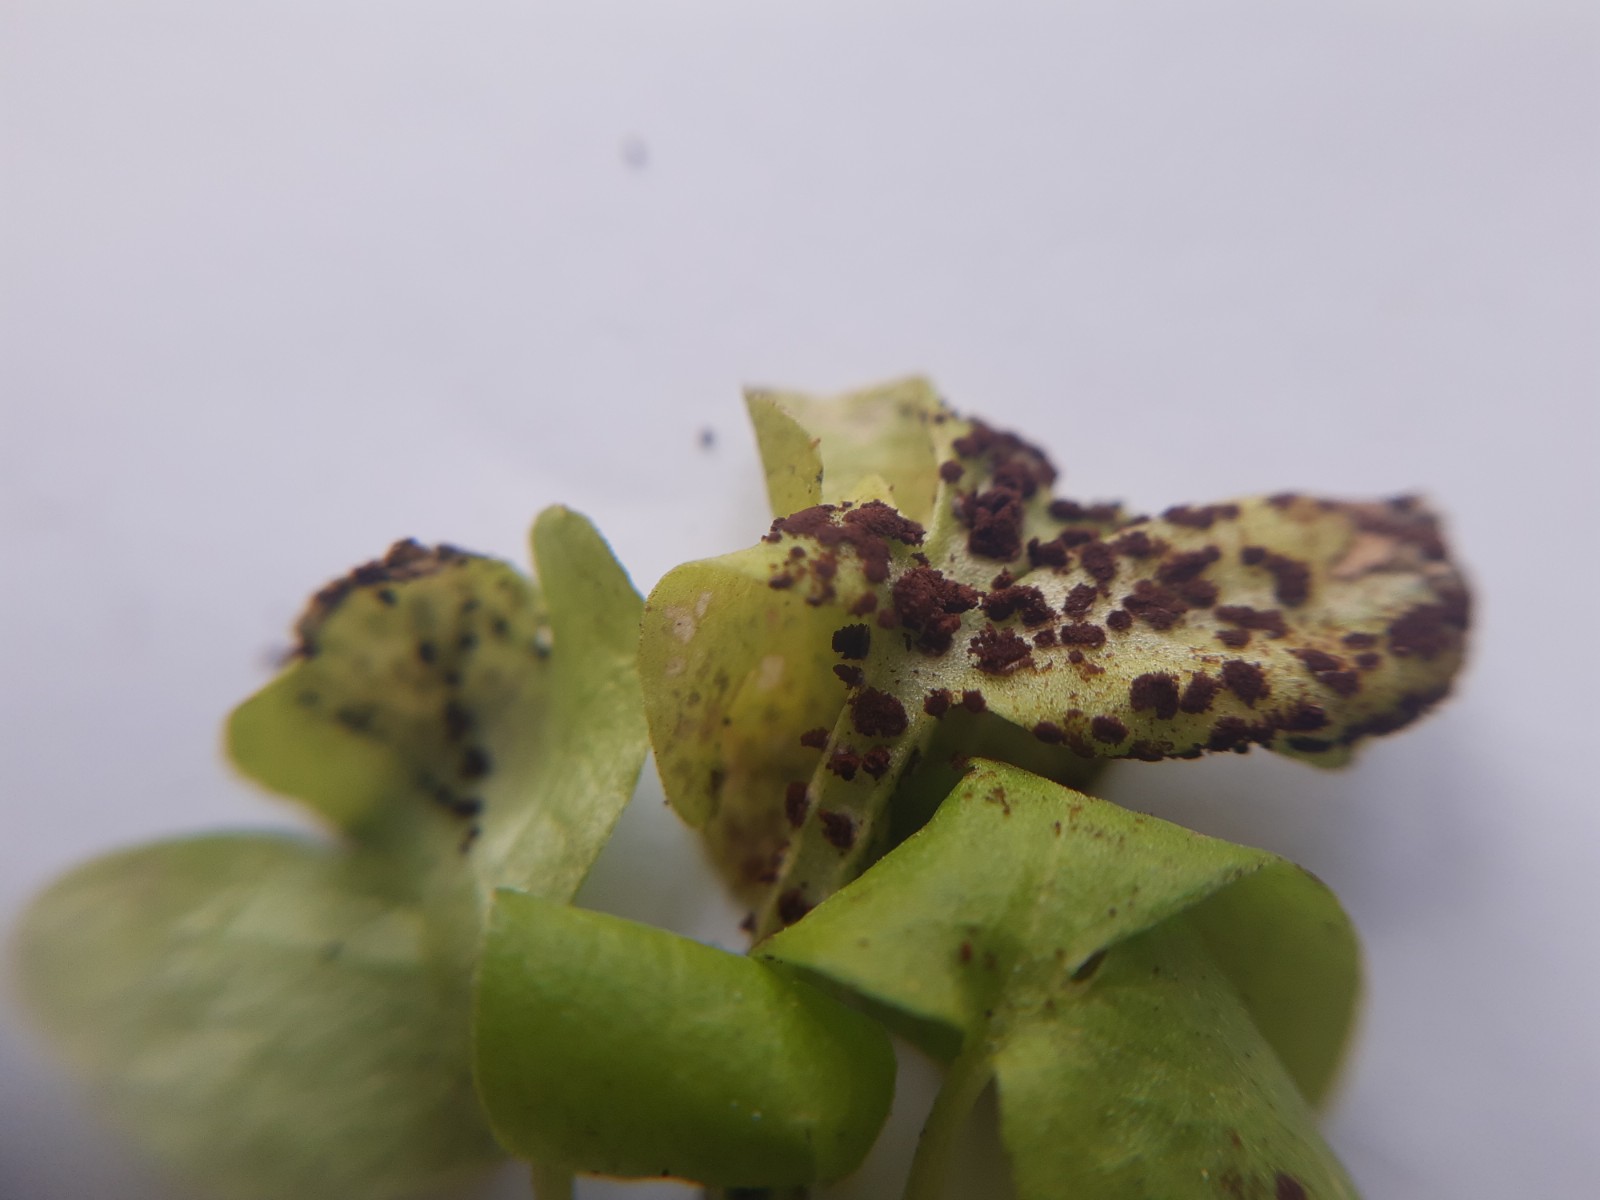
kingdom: Fungi
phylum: Basidiomycota
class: Pucciniomycetes
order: Pucciniales
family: Pucciniaceae
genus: Puccinia
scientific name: Puccinia adoxae
